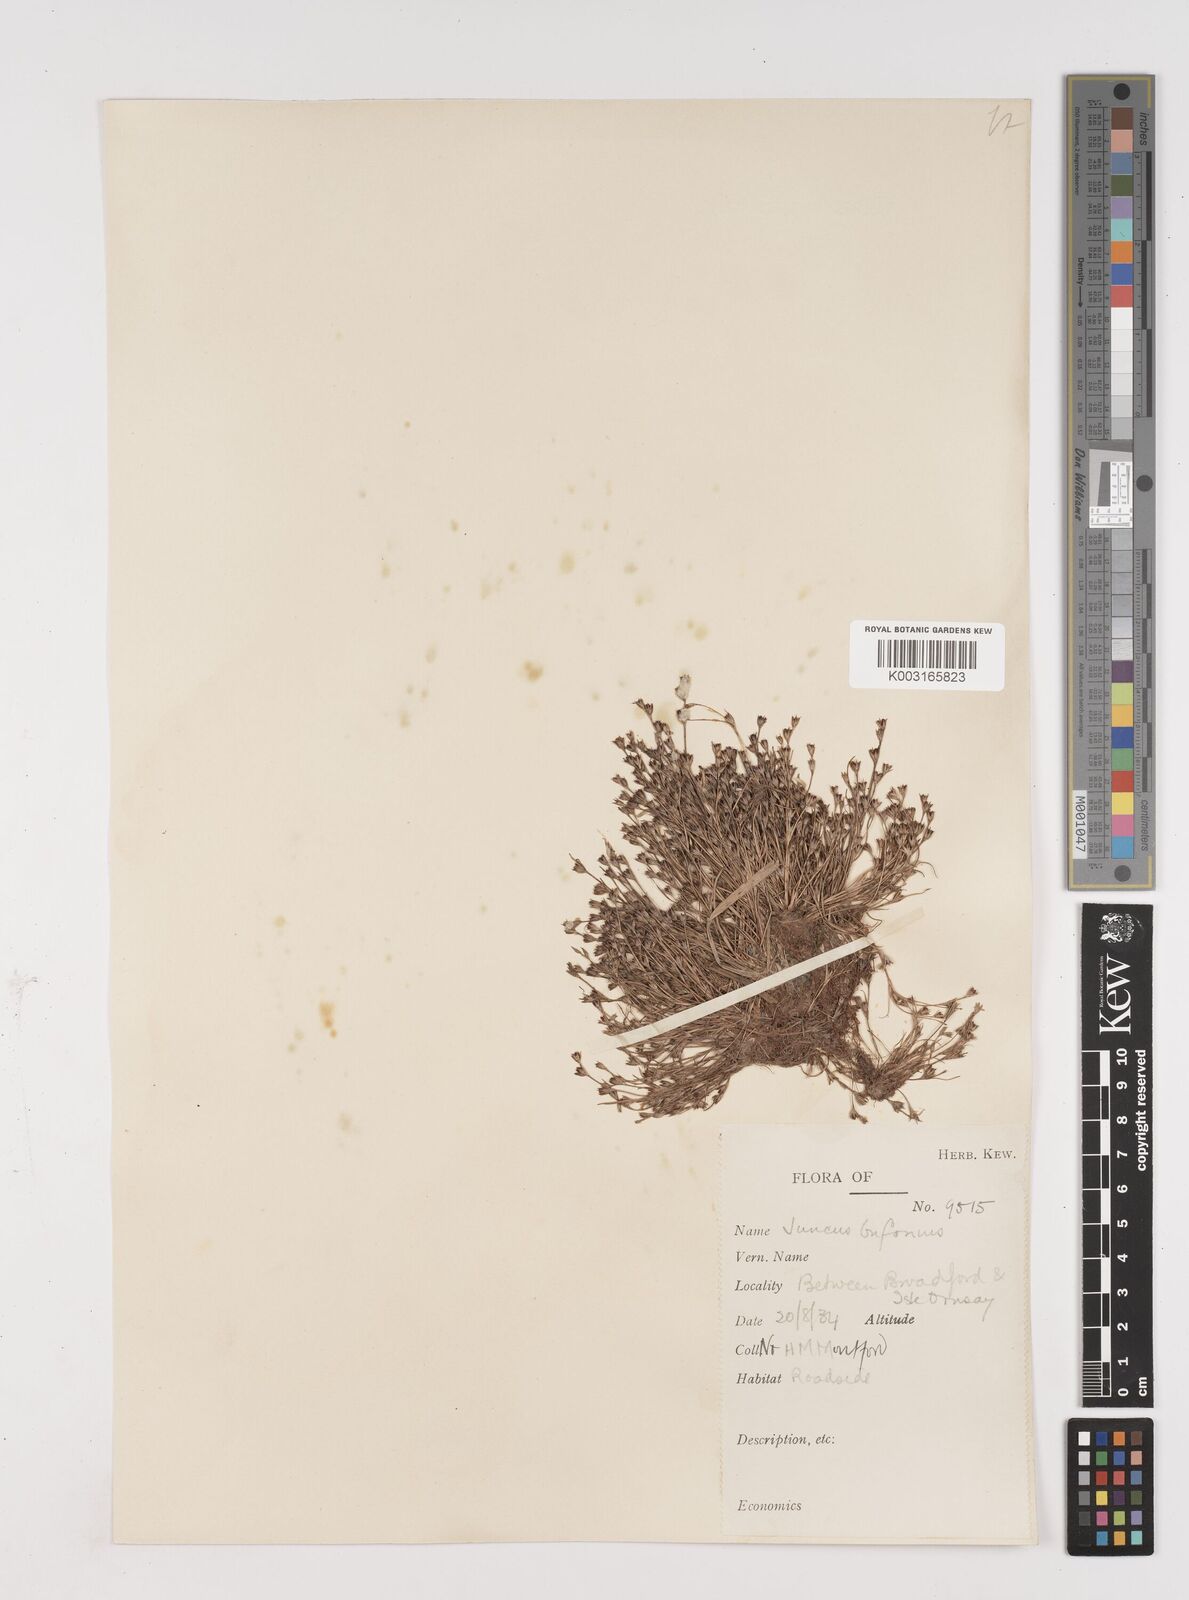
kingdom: Plantae
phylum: Tracheophyta
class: Liliopsida
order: Poales
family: Juncaceae
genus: Juncus
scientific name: Juncus bufonius
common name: Toad rush
